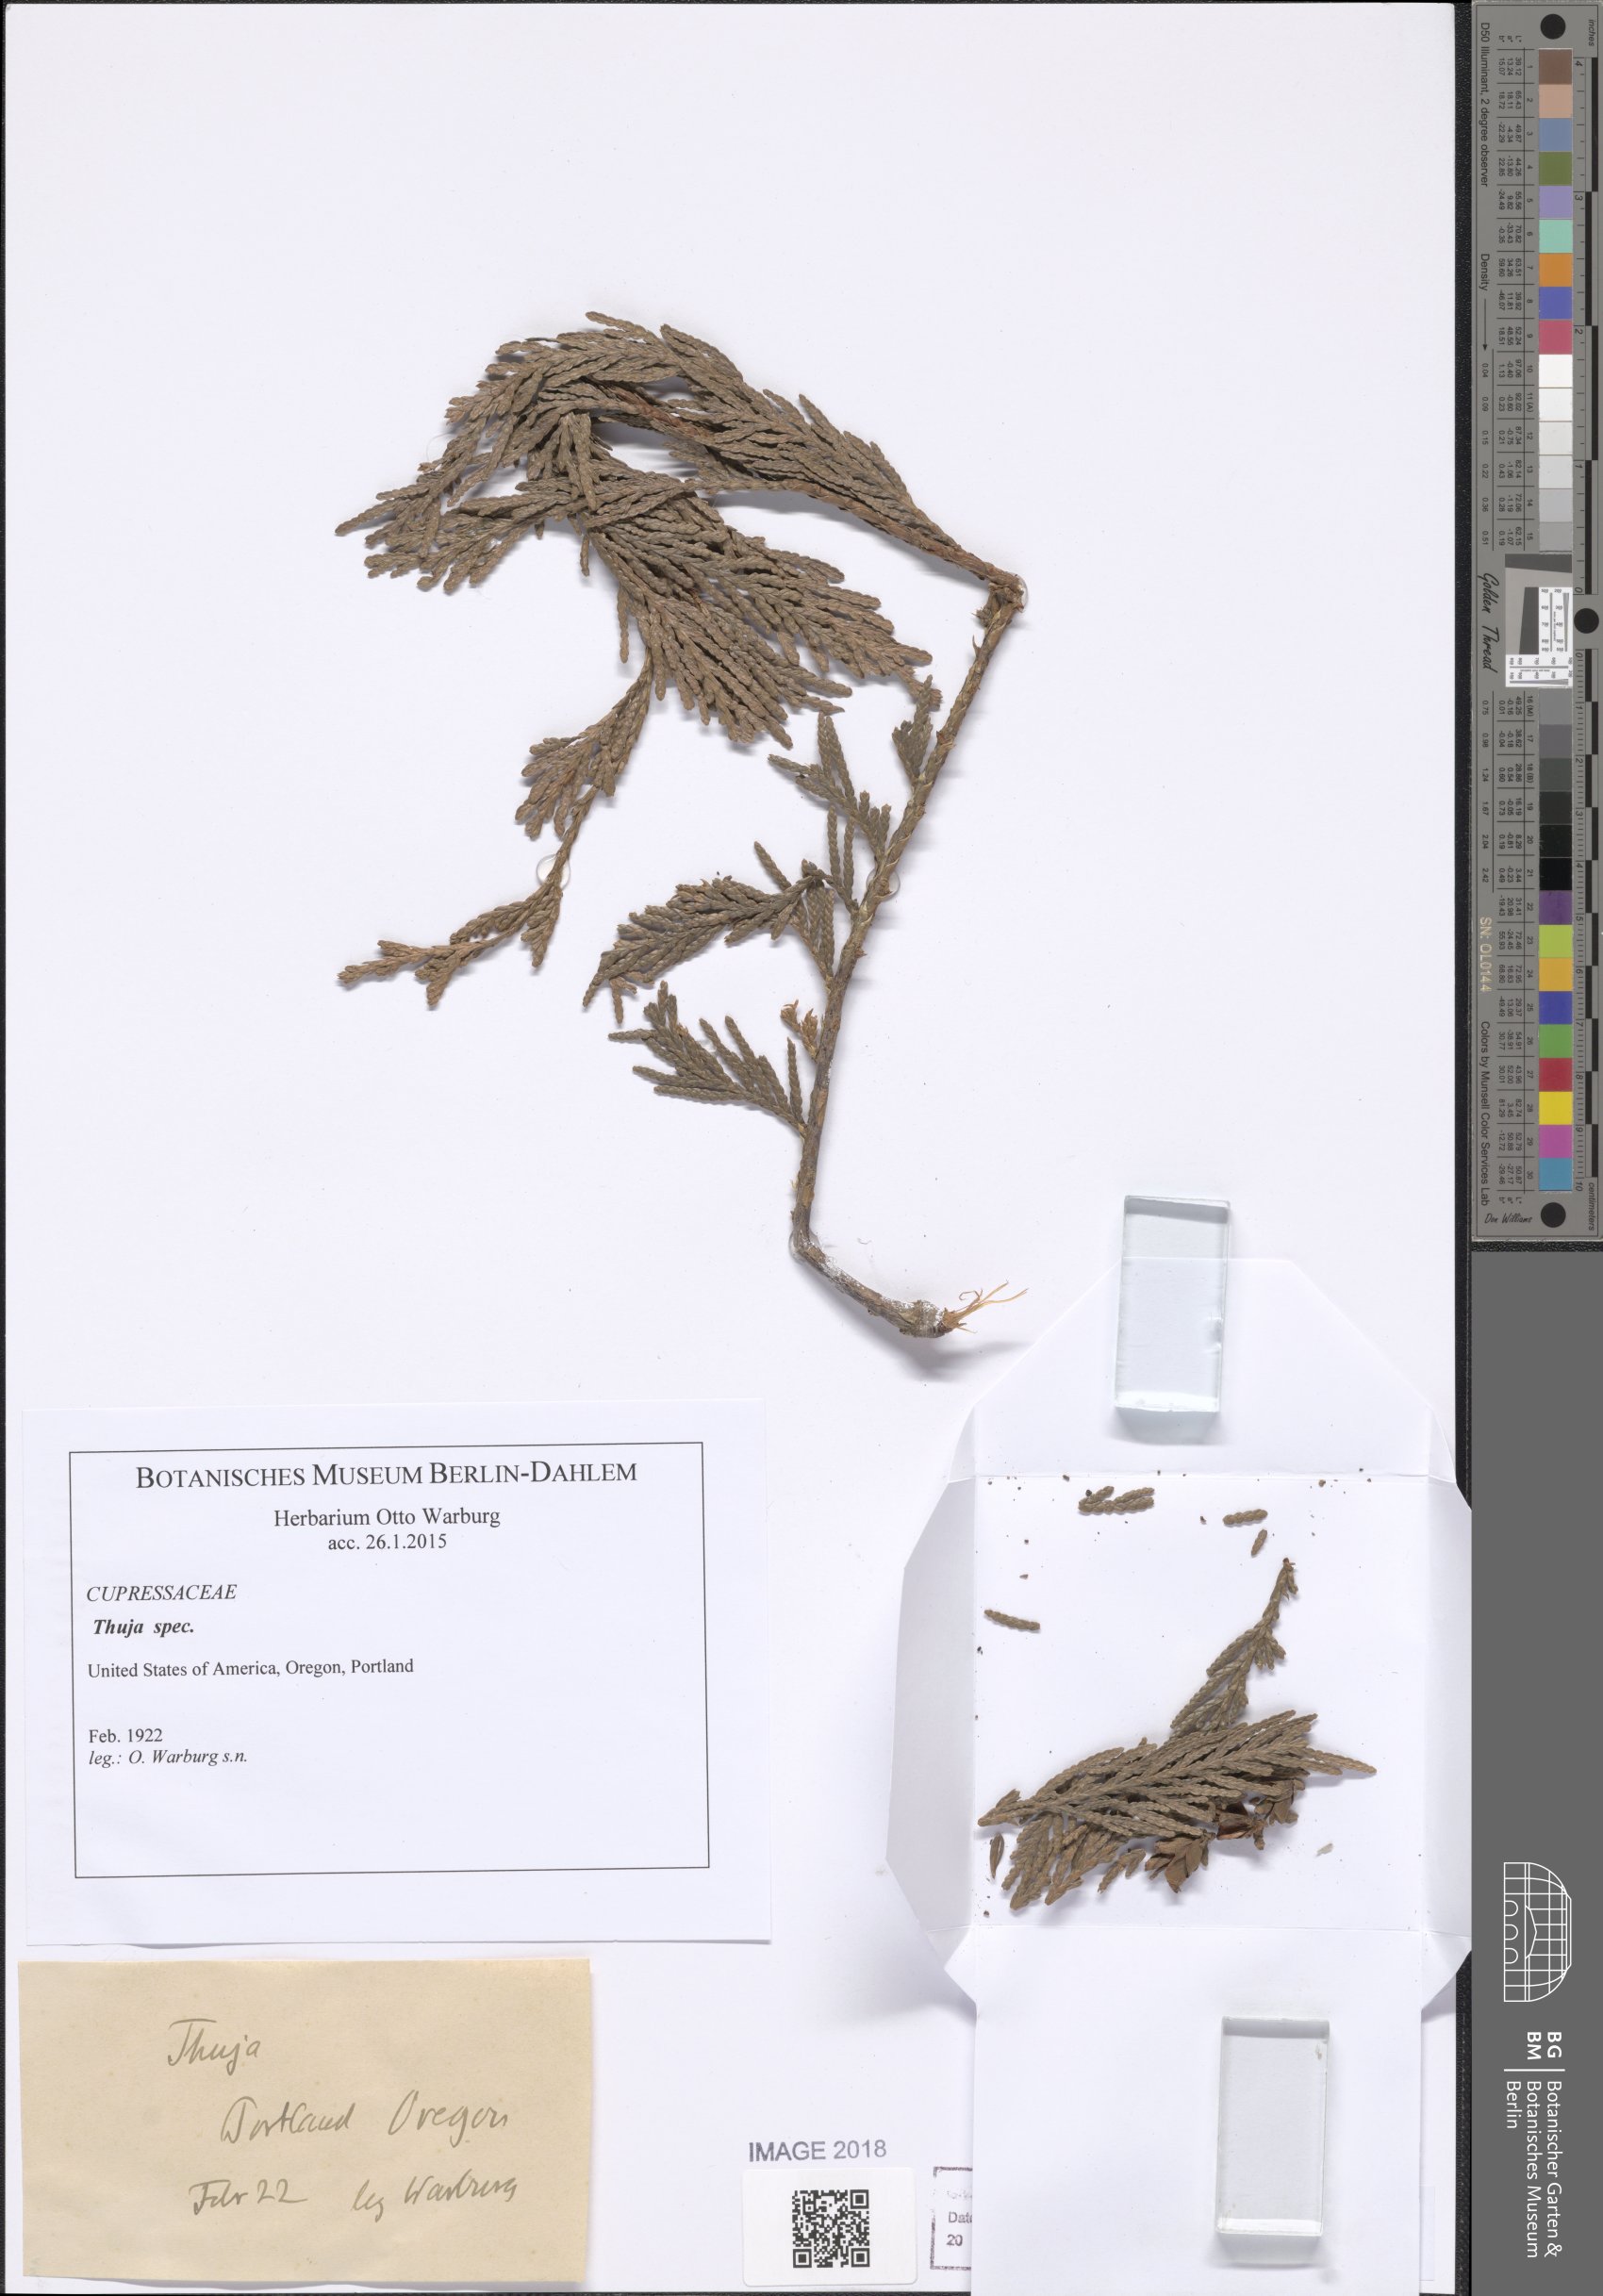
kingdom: Plantae
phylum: Tracheophyta
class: Pinopsida
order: Pinales
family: Cupressaceae
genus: Thuja
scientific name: Thuja
